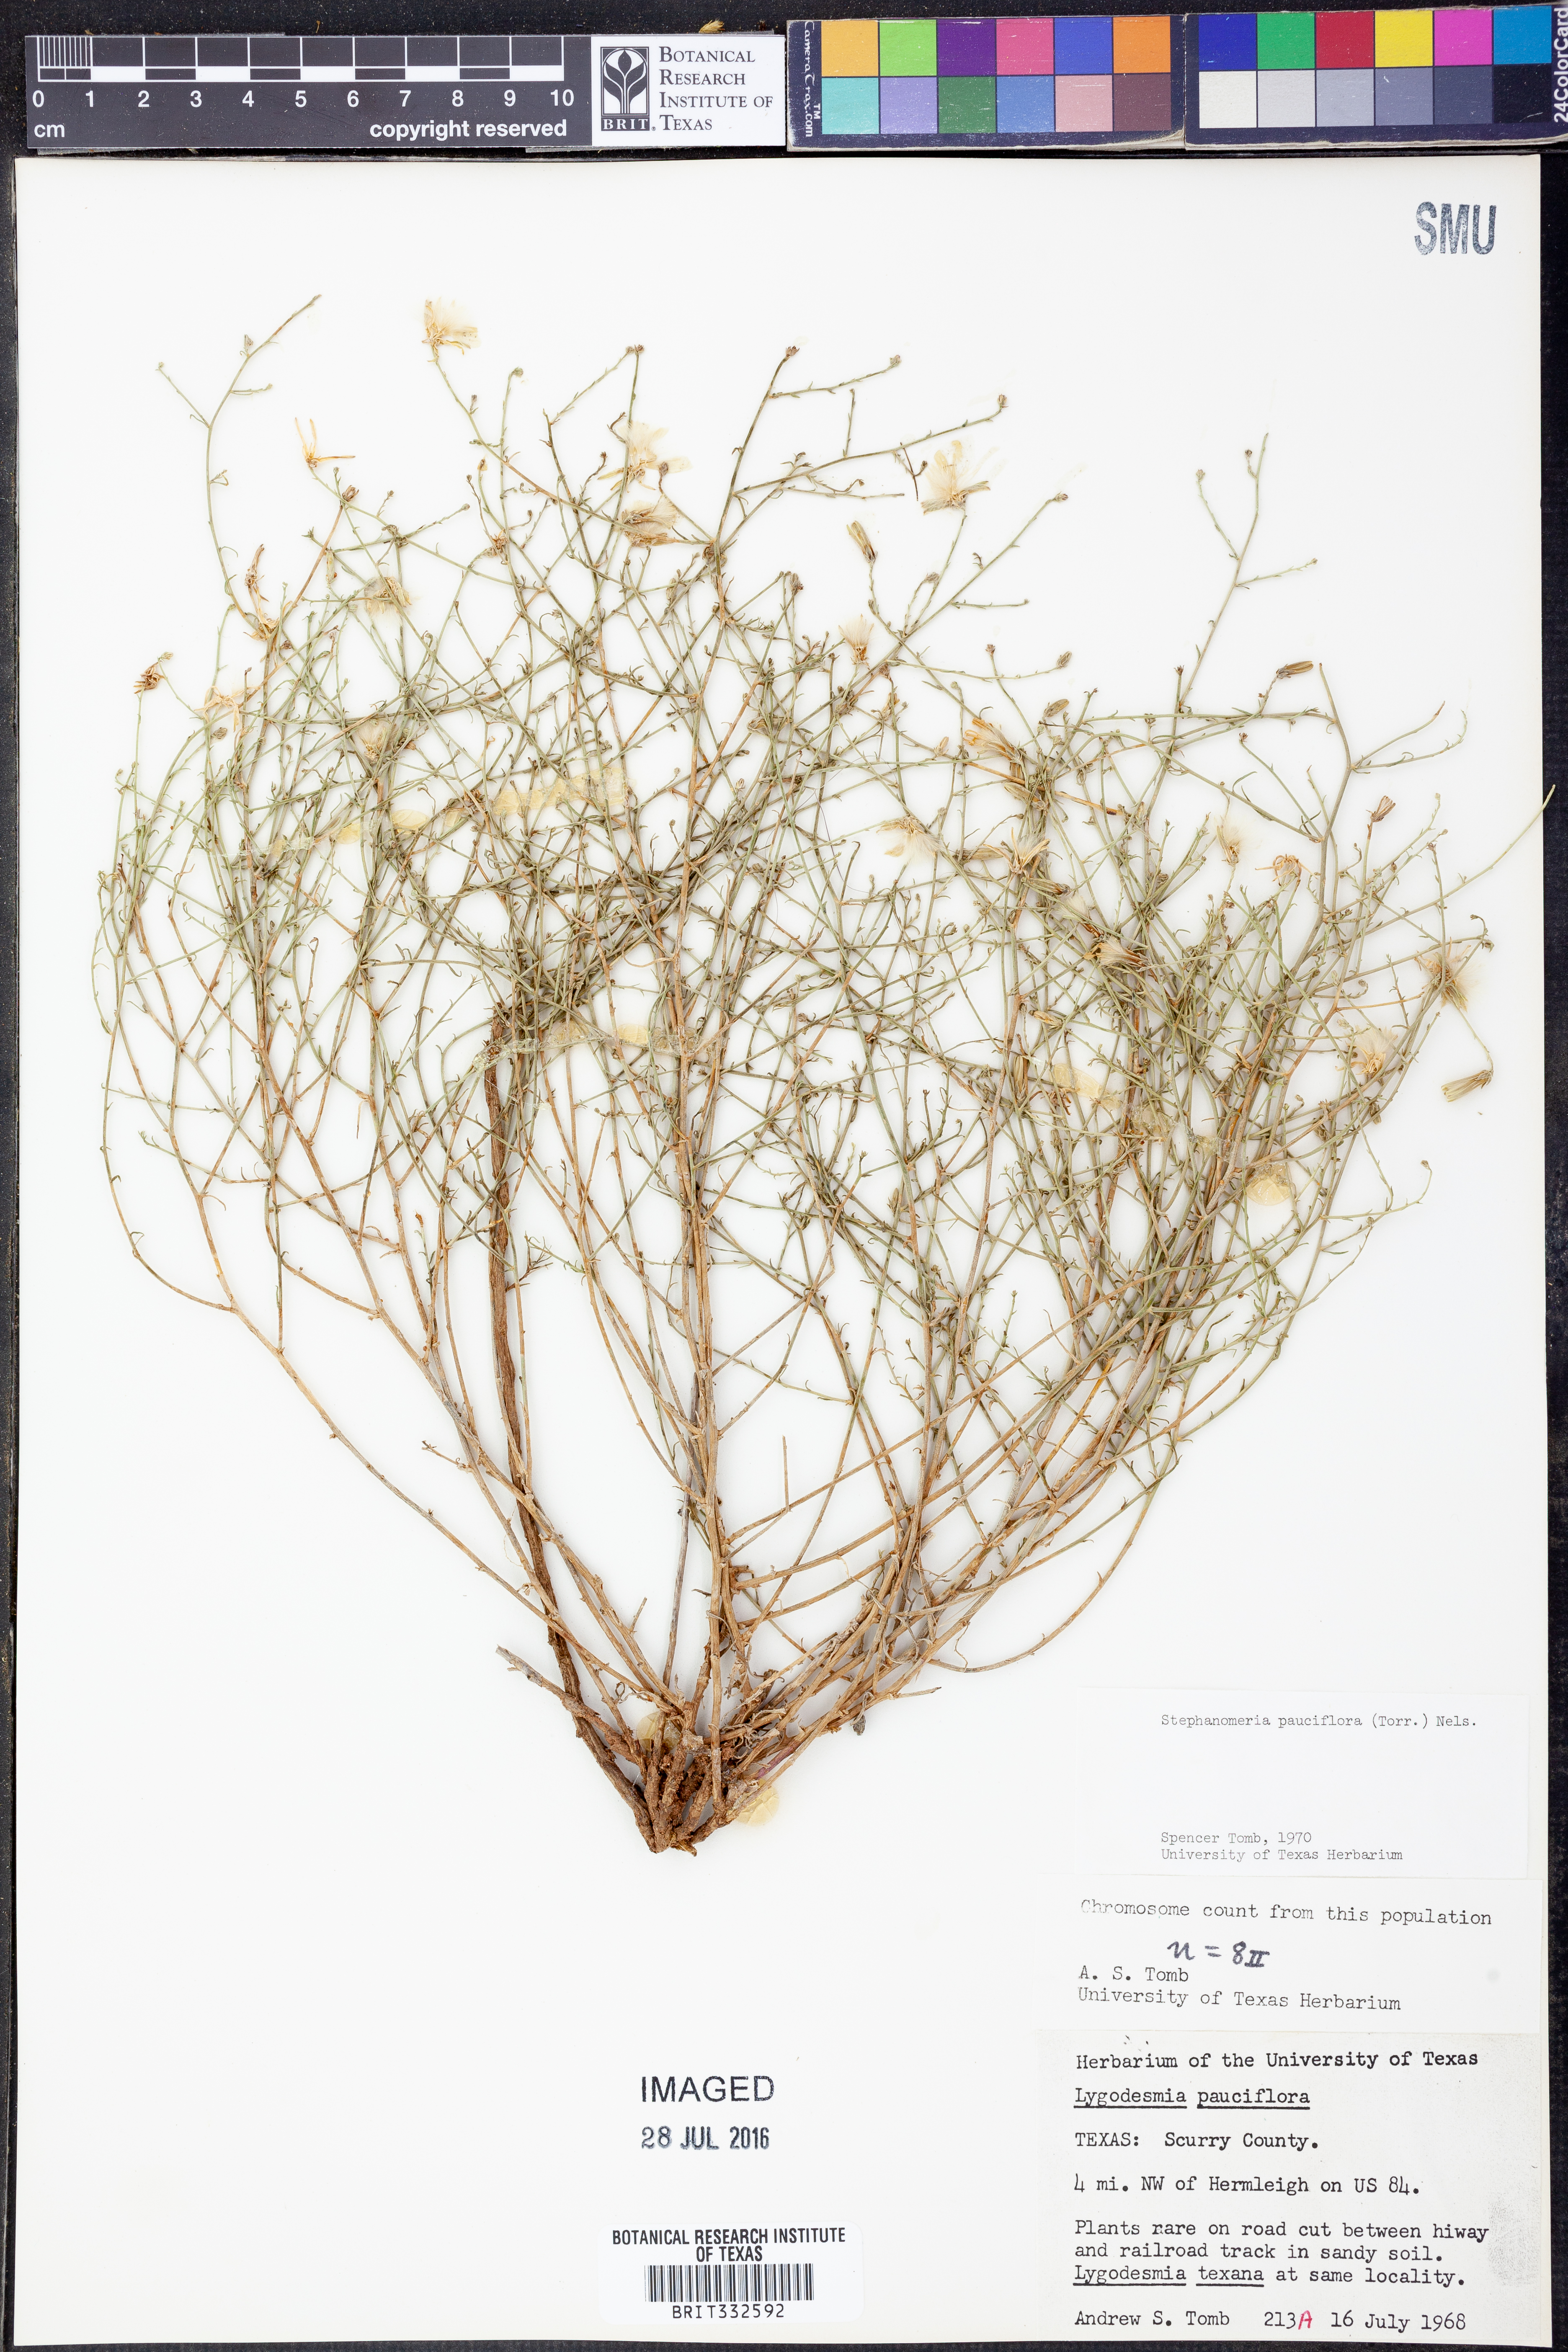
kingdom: Plantae
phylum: Tracheophyta
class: Magnoliopsida
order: Asterales
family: Asteraceae
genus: Stephanomeria
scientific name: Stephanomeria pauciflora
